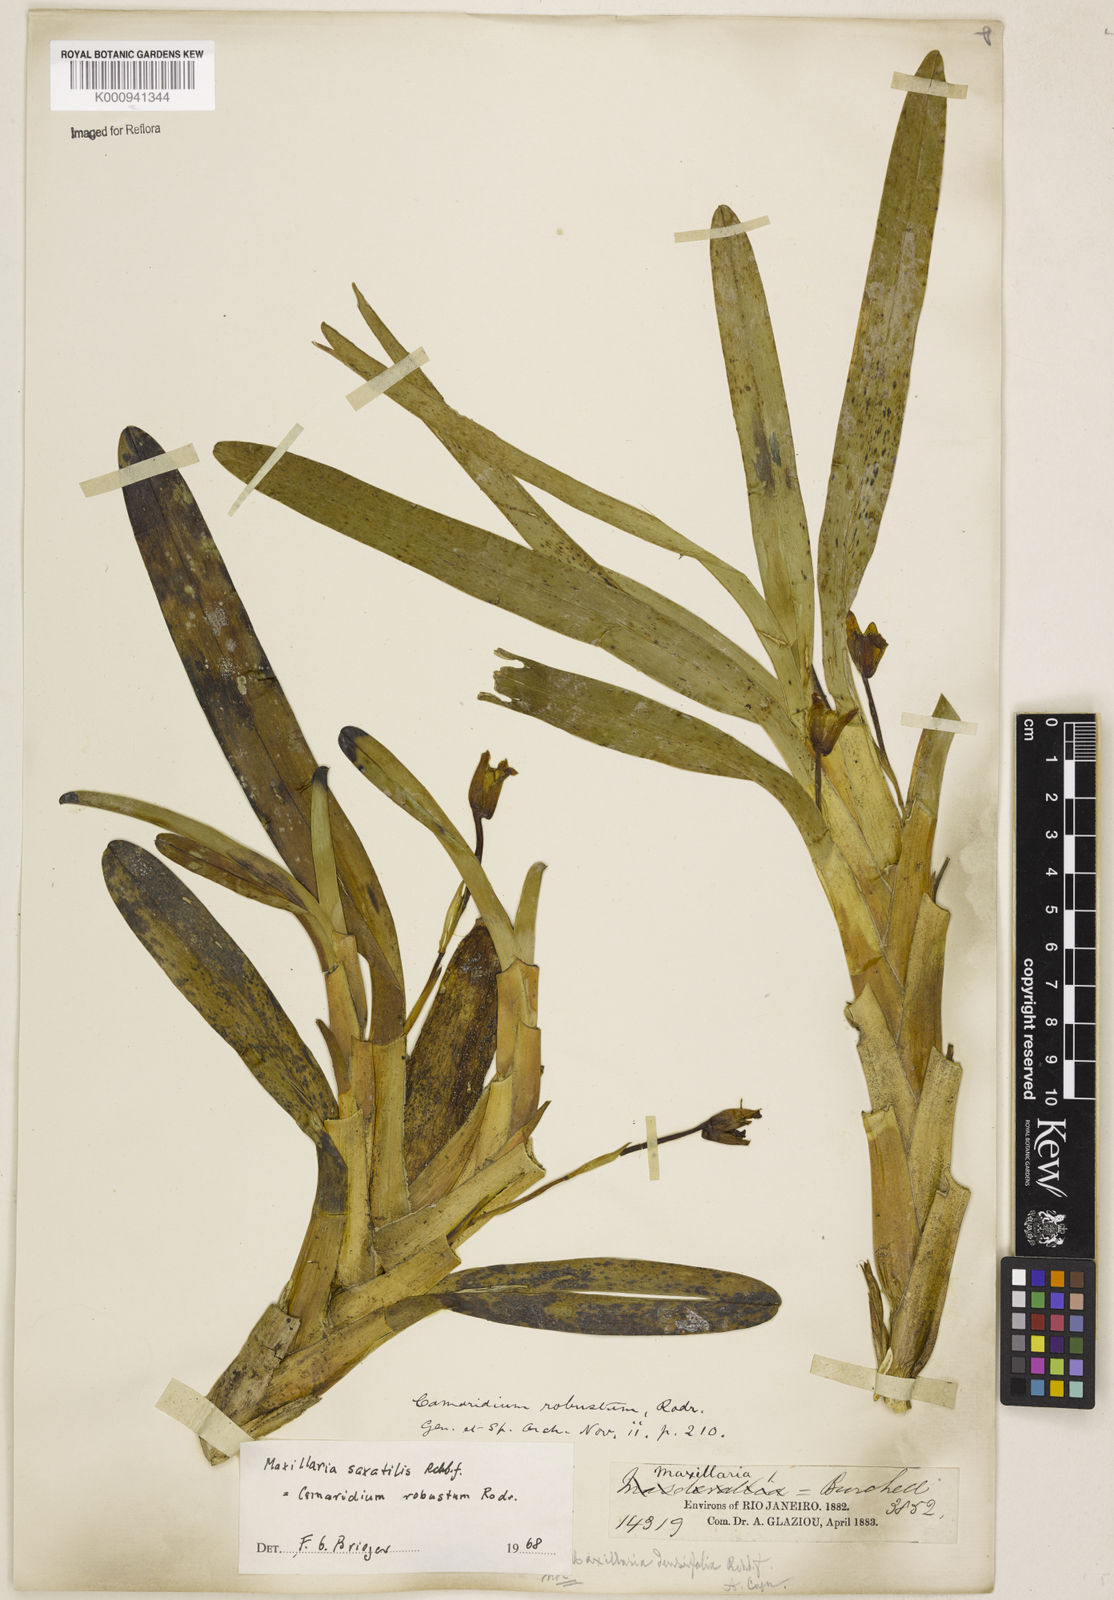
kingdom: Plantae
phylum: Tracheophyta
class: Liliopsida
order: Asparagales
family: Orchidaceae
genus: Maxillaria
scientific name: Maxillaria johannis
